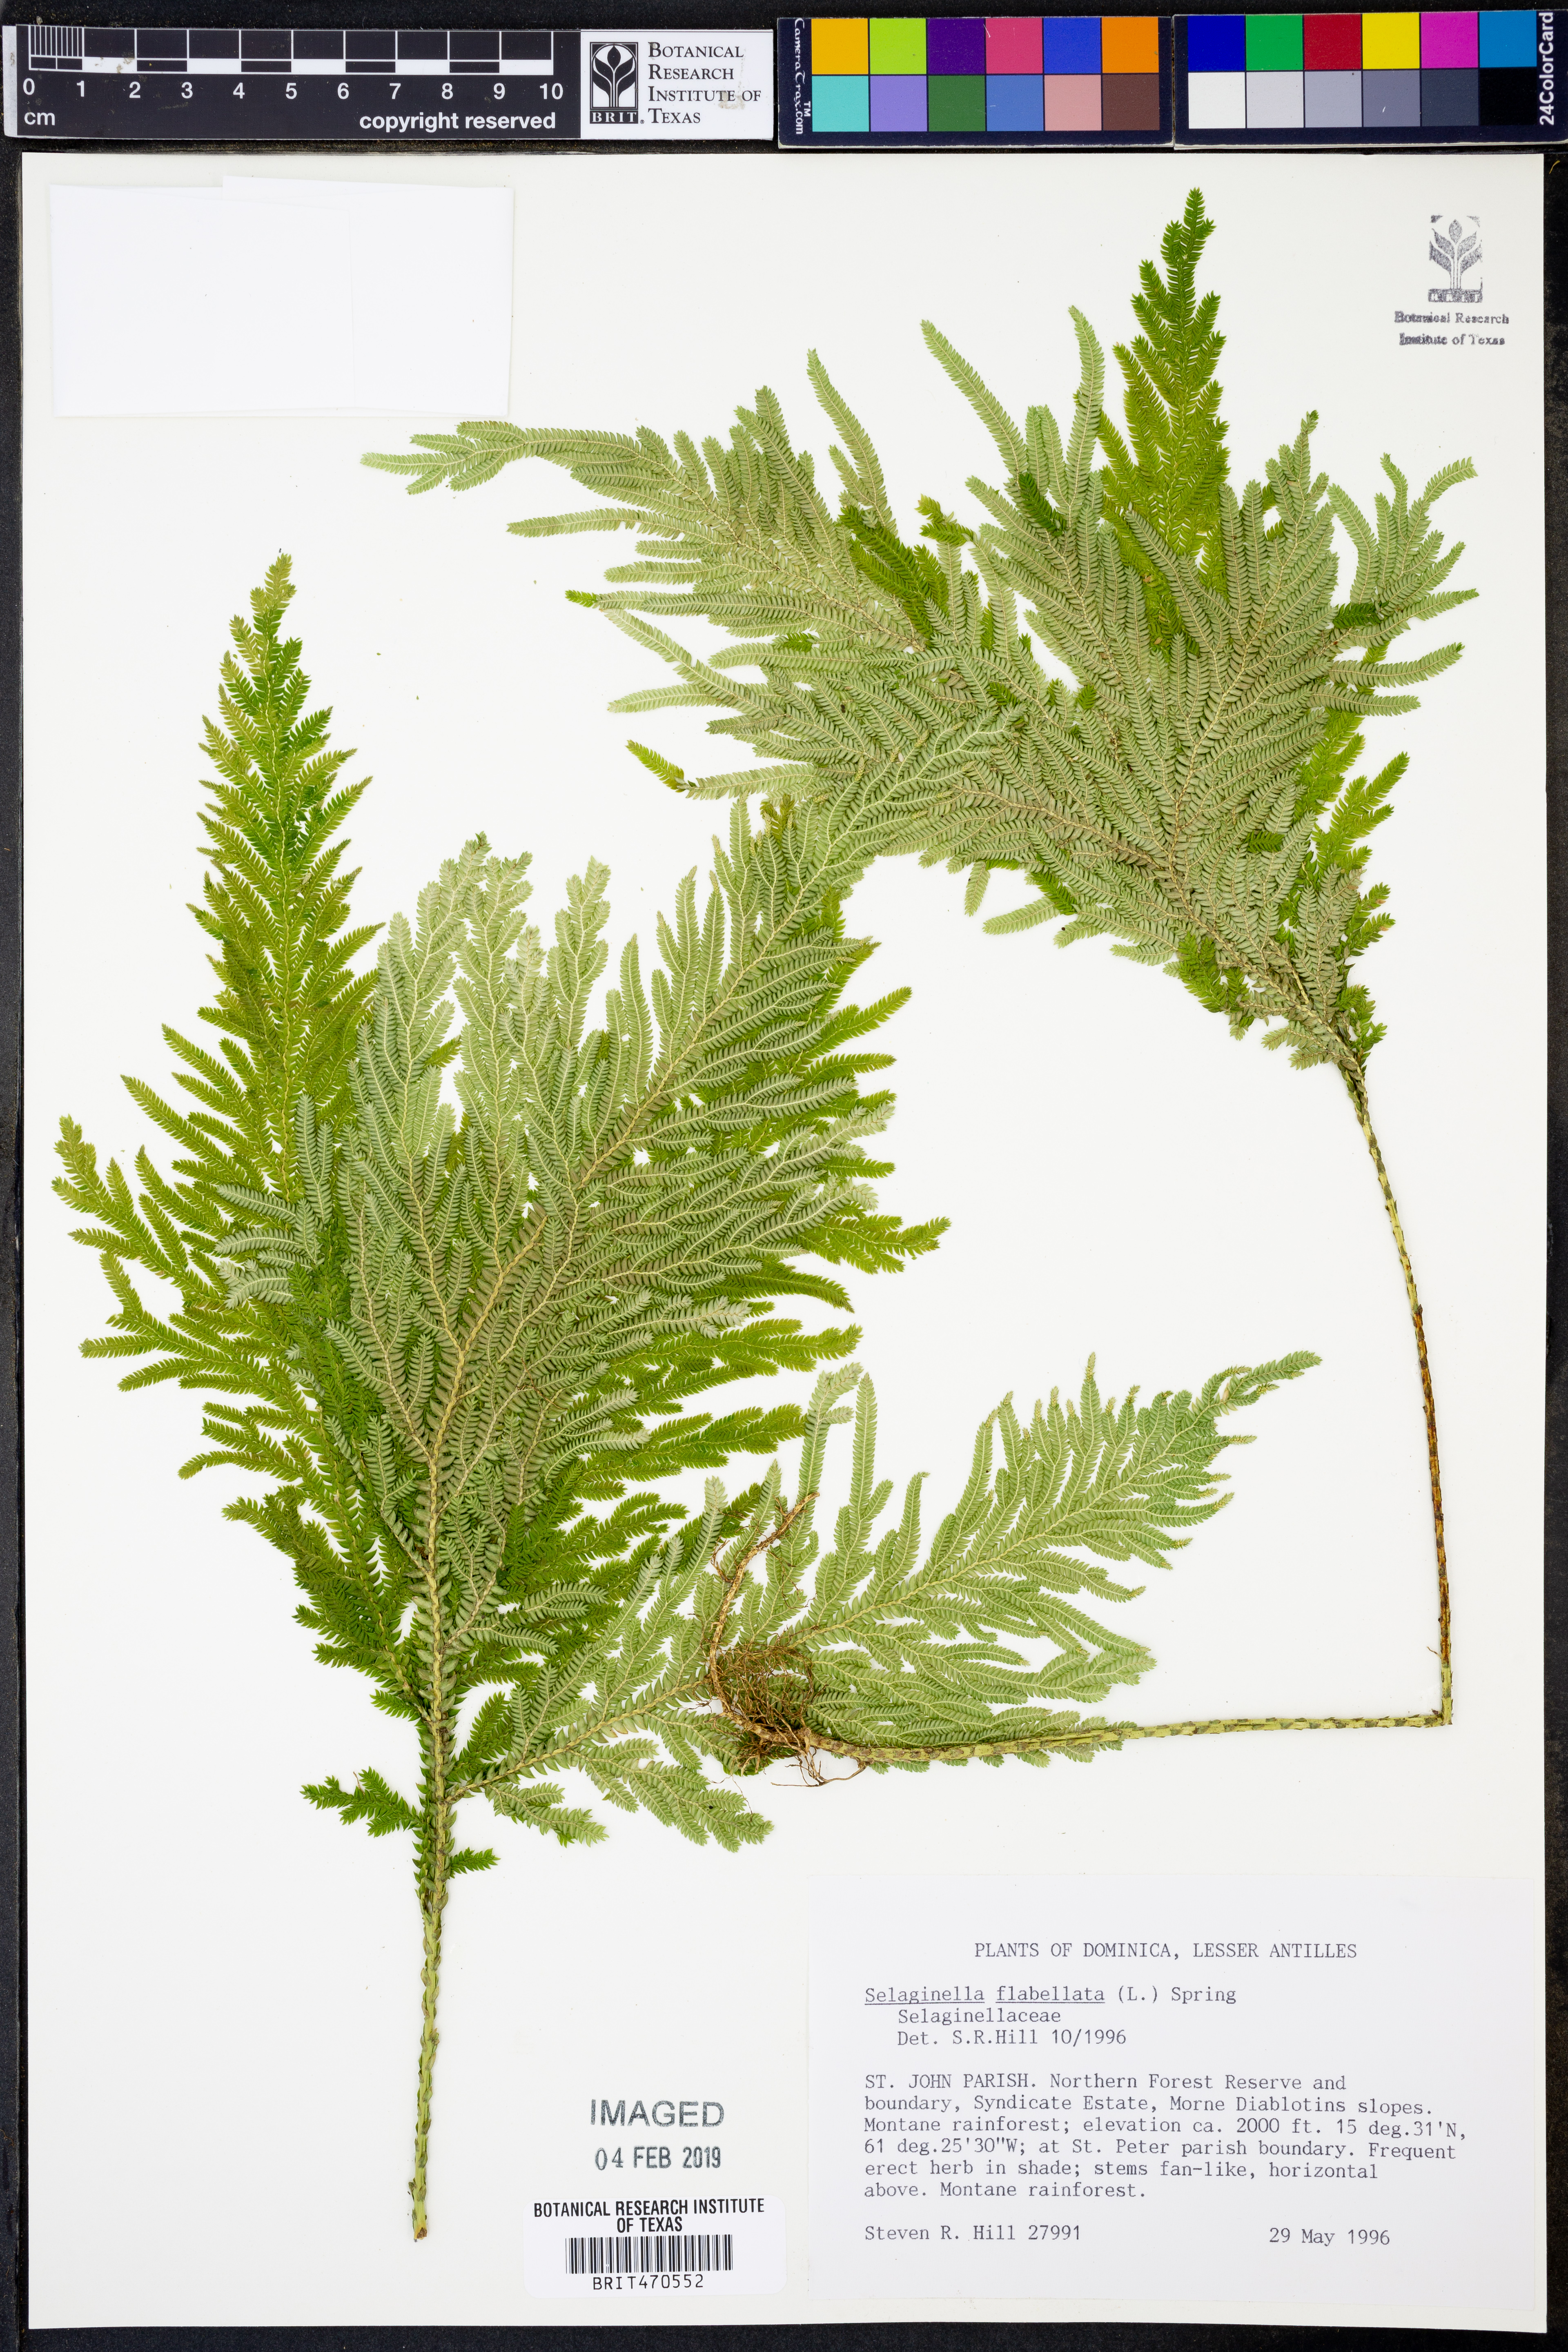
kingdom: Plantae
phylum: Tracheophyta
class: Lycopodiopsida
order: Selaginellales
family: Selaginellaceae
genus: Selaginella
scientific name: Selaginella flabellata
